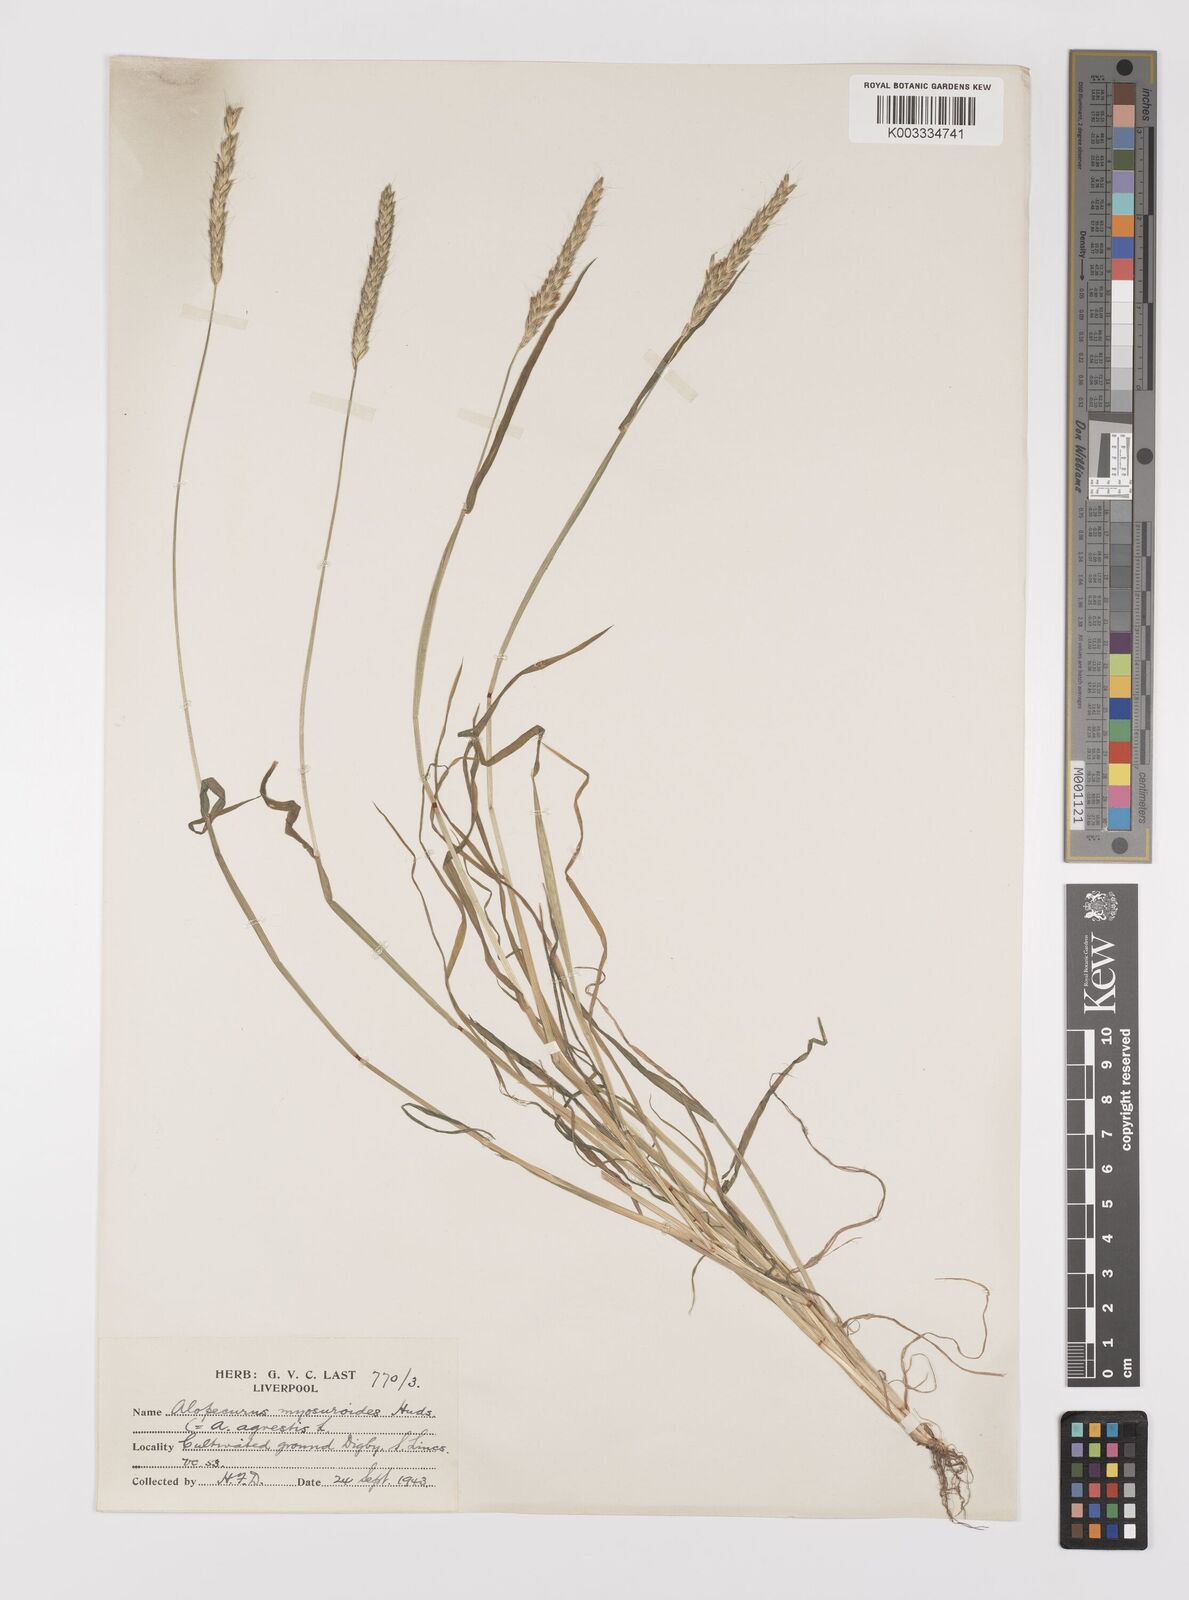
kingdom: Plantae
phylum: Tracheophyta
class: Liliopsida
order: Poales
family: Poaceae
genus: Alopecurus
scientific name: Alopecurus myosuroides
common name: Black-grass
